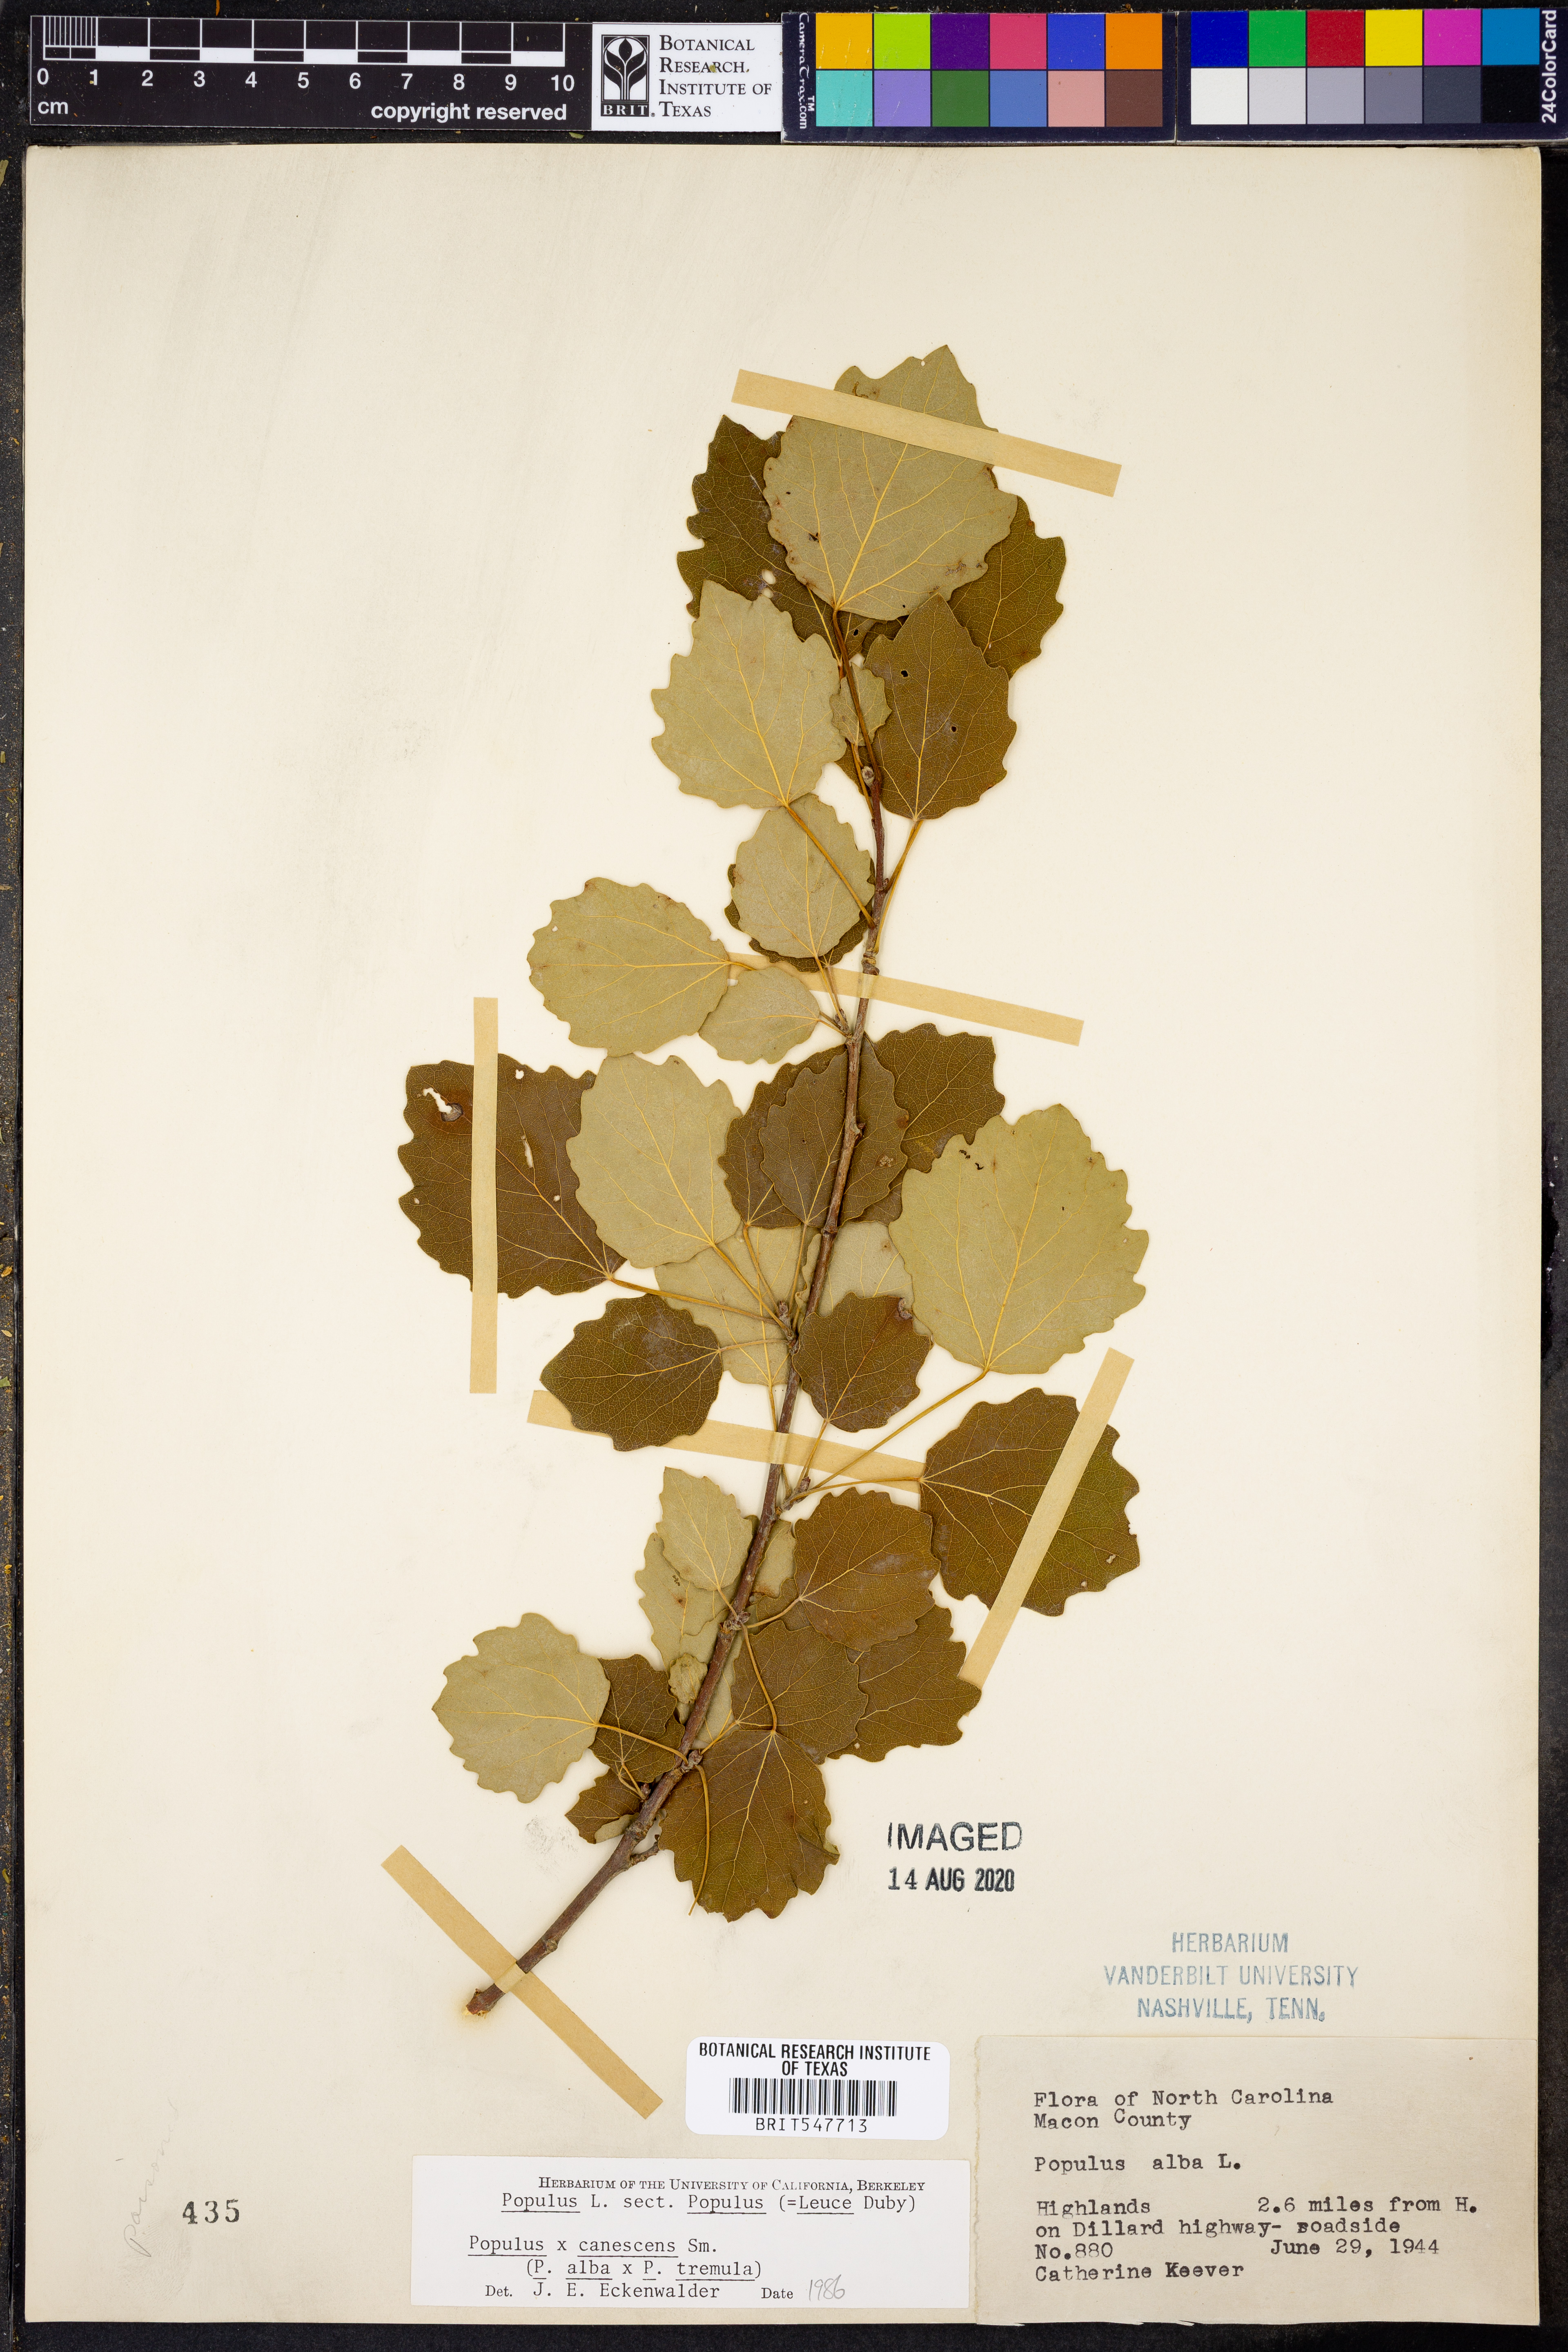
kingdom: Plantae
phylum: Tracheophyta
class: Magnoliopsida
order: Malpighiales
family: Salicaceae
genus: Populus
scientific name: Populus
